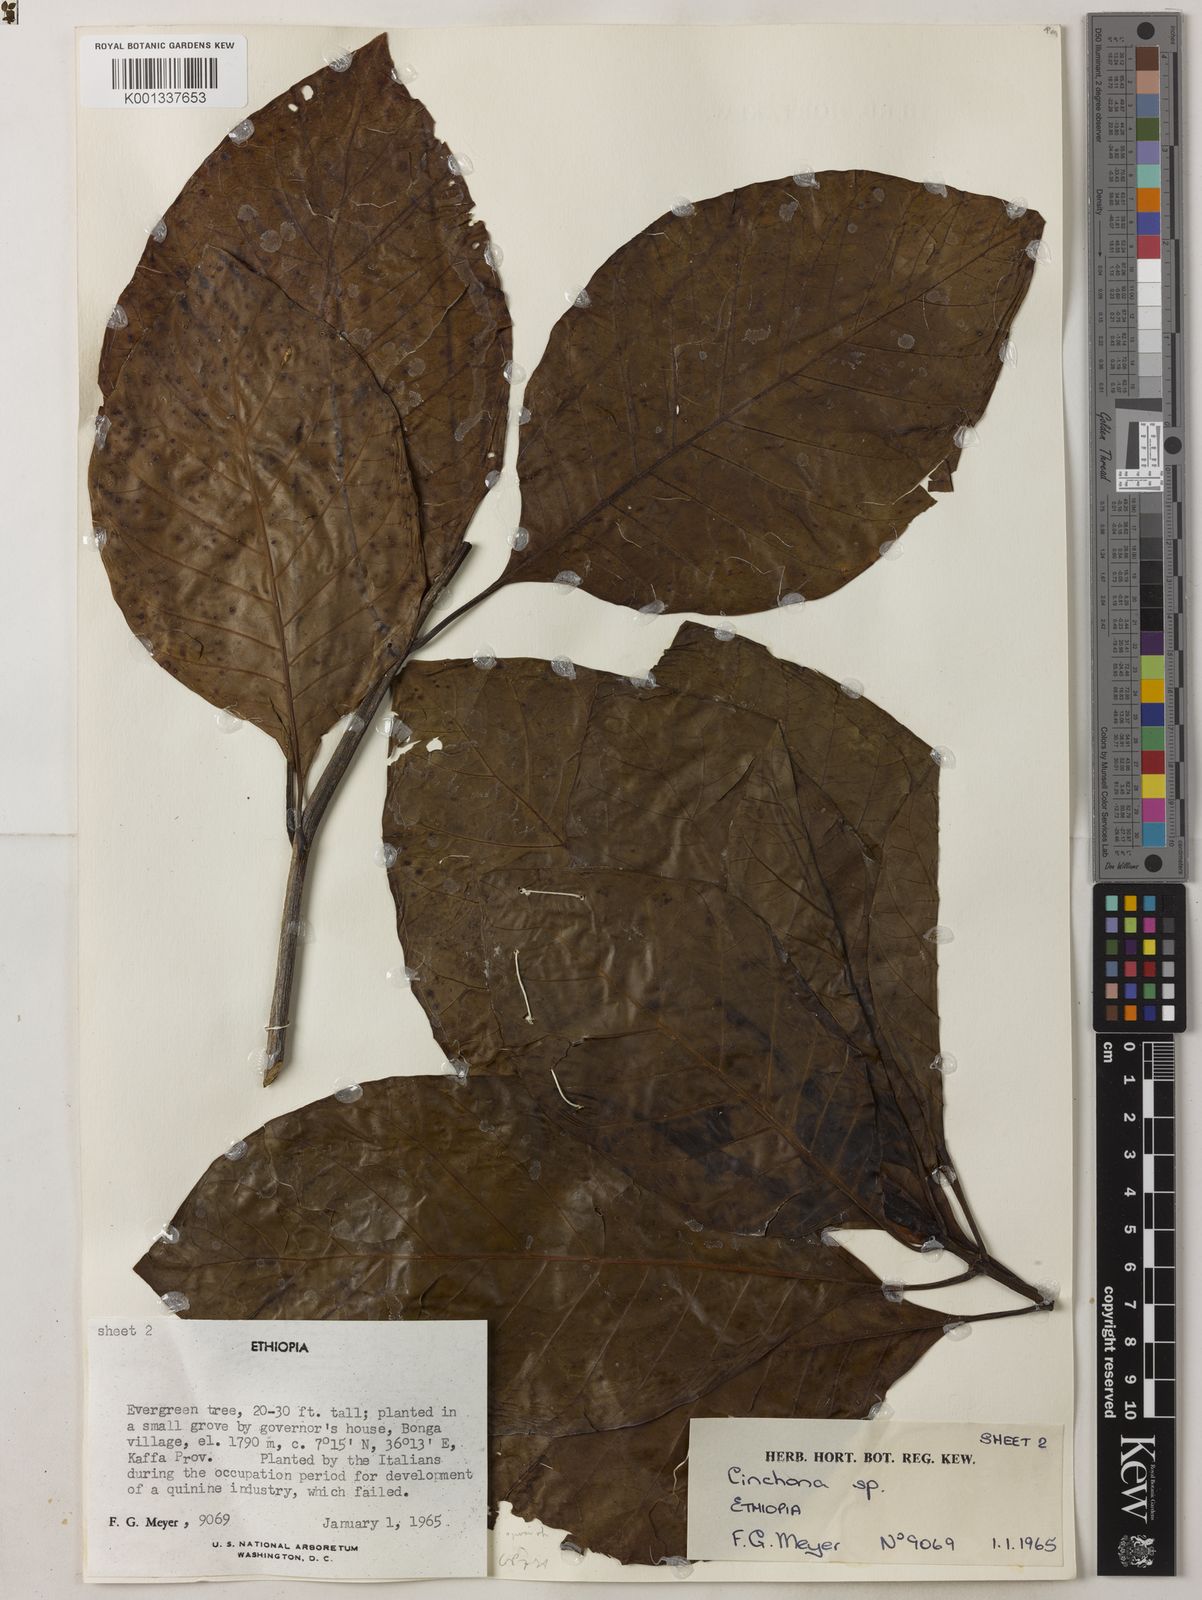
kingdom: Plantae
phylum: Tracheophyta
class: Magnoliopsida
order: Gentianales
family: Rubiaceae
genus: Cinchona
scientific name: Cinchona pubescens
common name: Quinine
